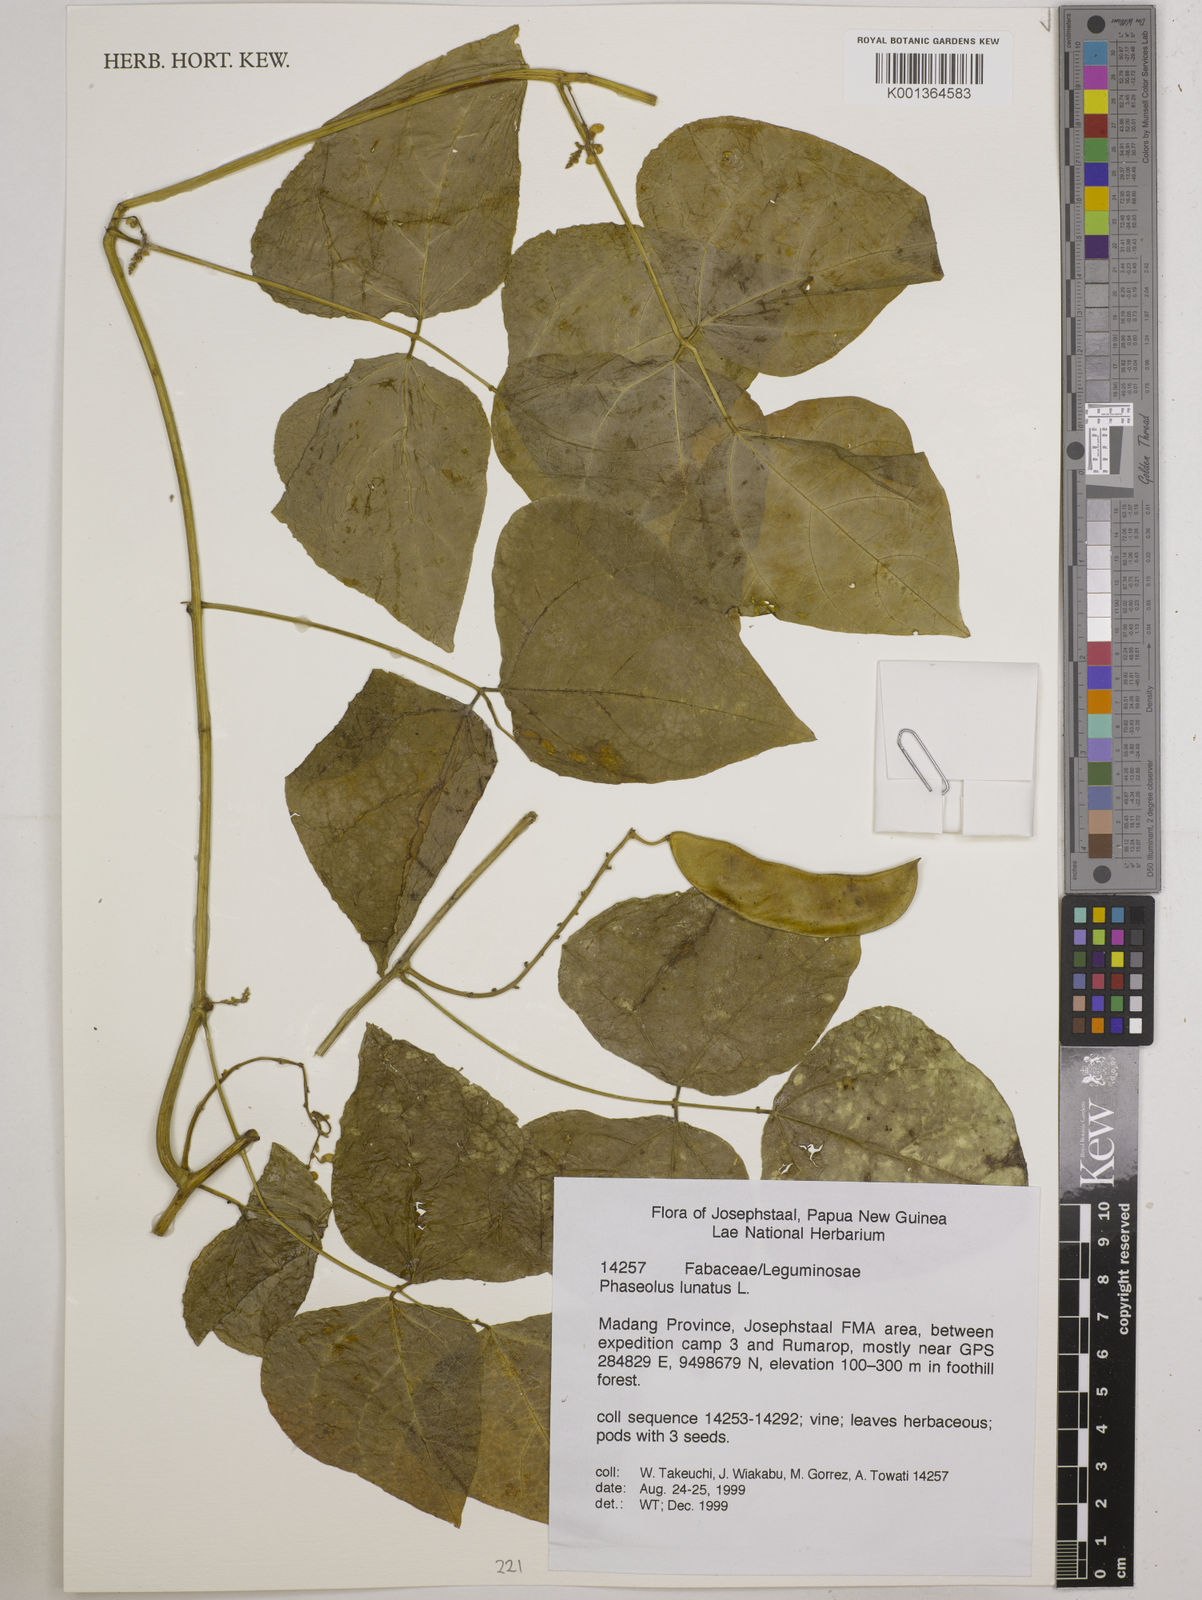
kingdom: Plantae
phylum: Tracheophyta
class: Magnoliopsida
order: Fabales
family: Fabaceae
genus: Phaseolus
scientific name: Phaseolus lunatus
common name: Sieva bean
